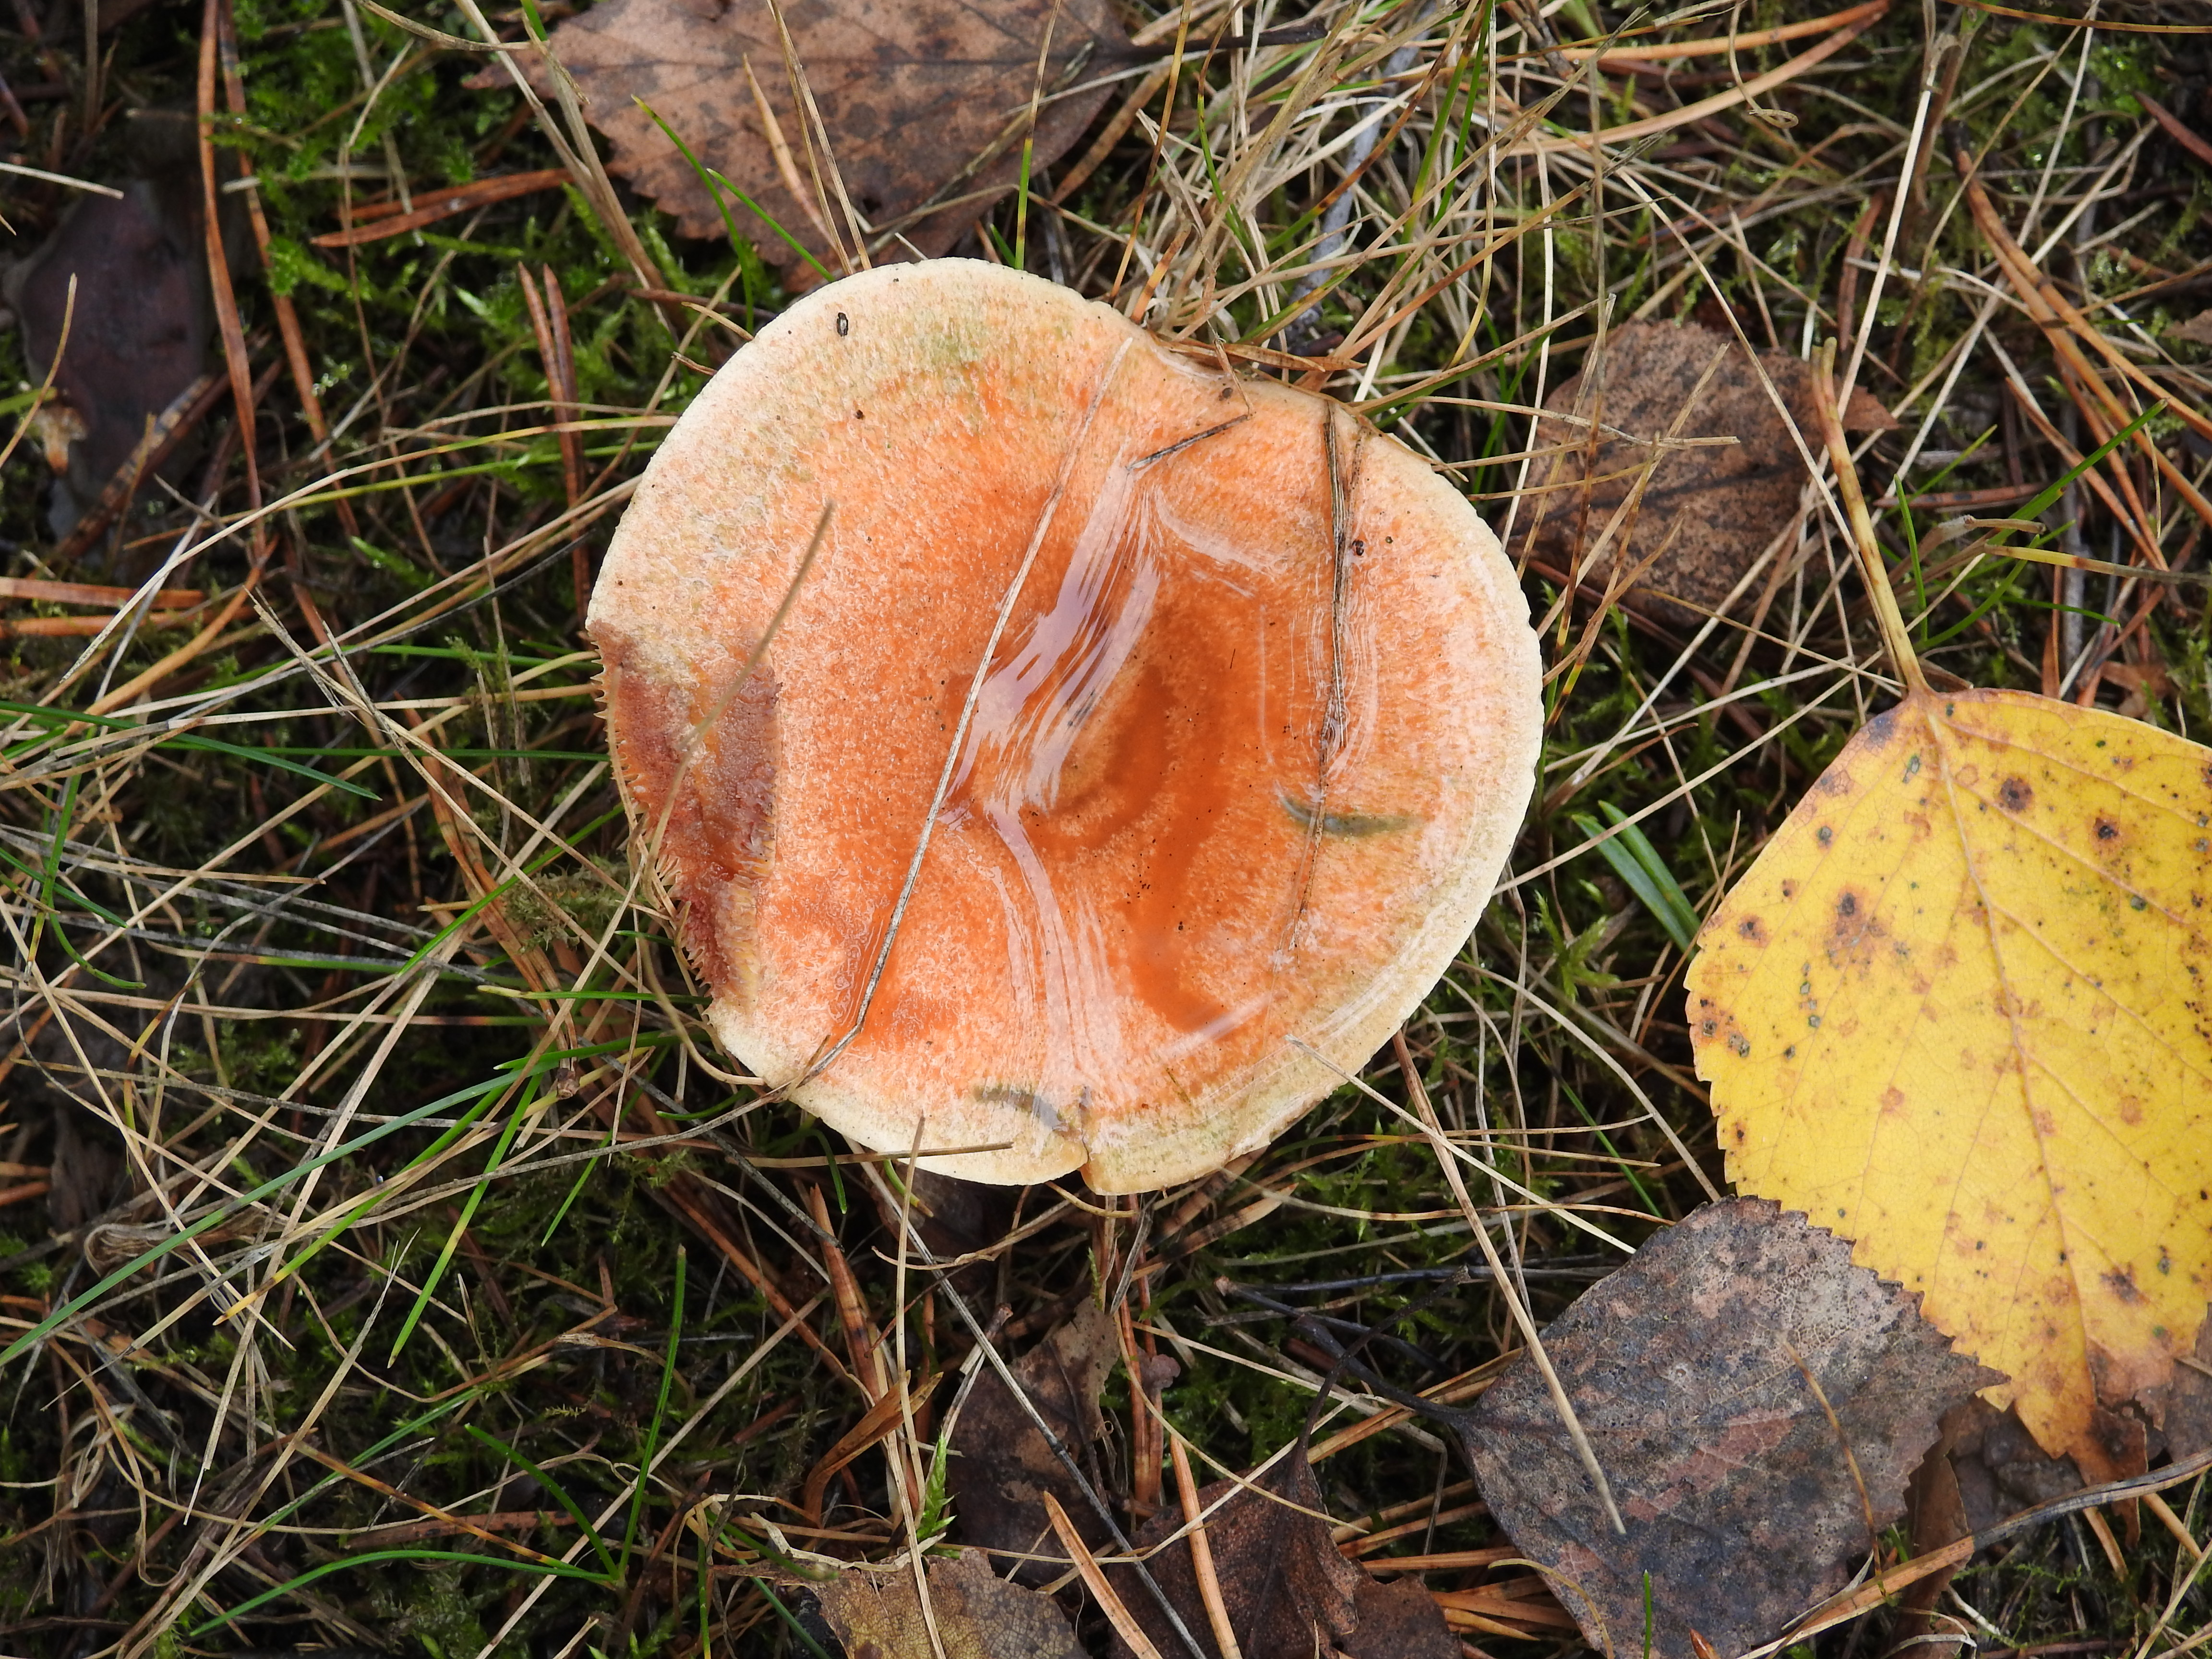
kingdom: Fungi
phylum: Basidiomycota
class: Agaricomycetes
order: Russulales
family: Russulaceae
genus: Lactarius
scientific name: Lactarius deliciosus
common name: Saffron milk-cap
